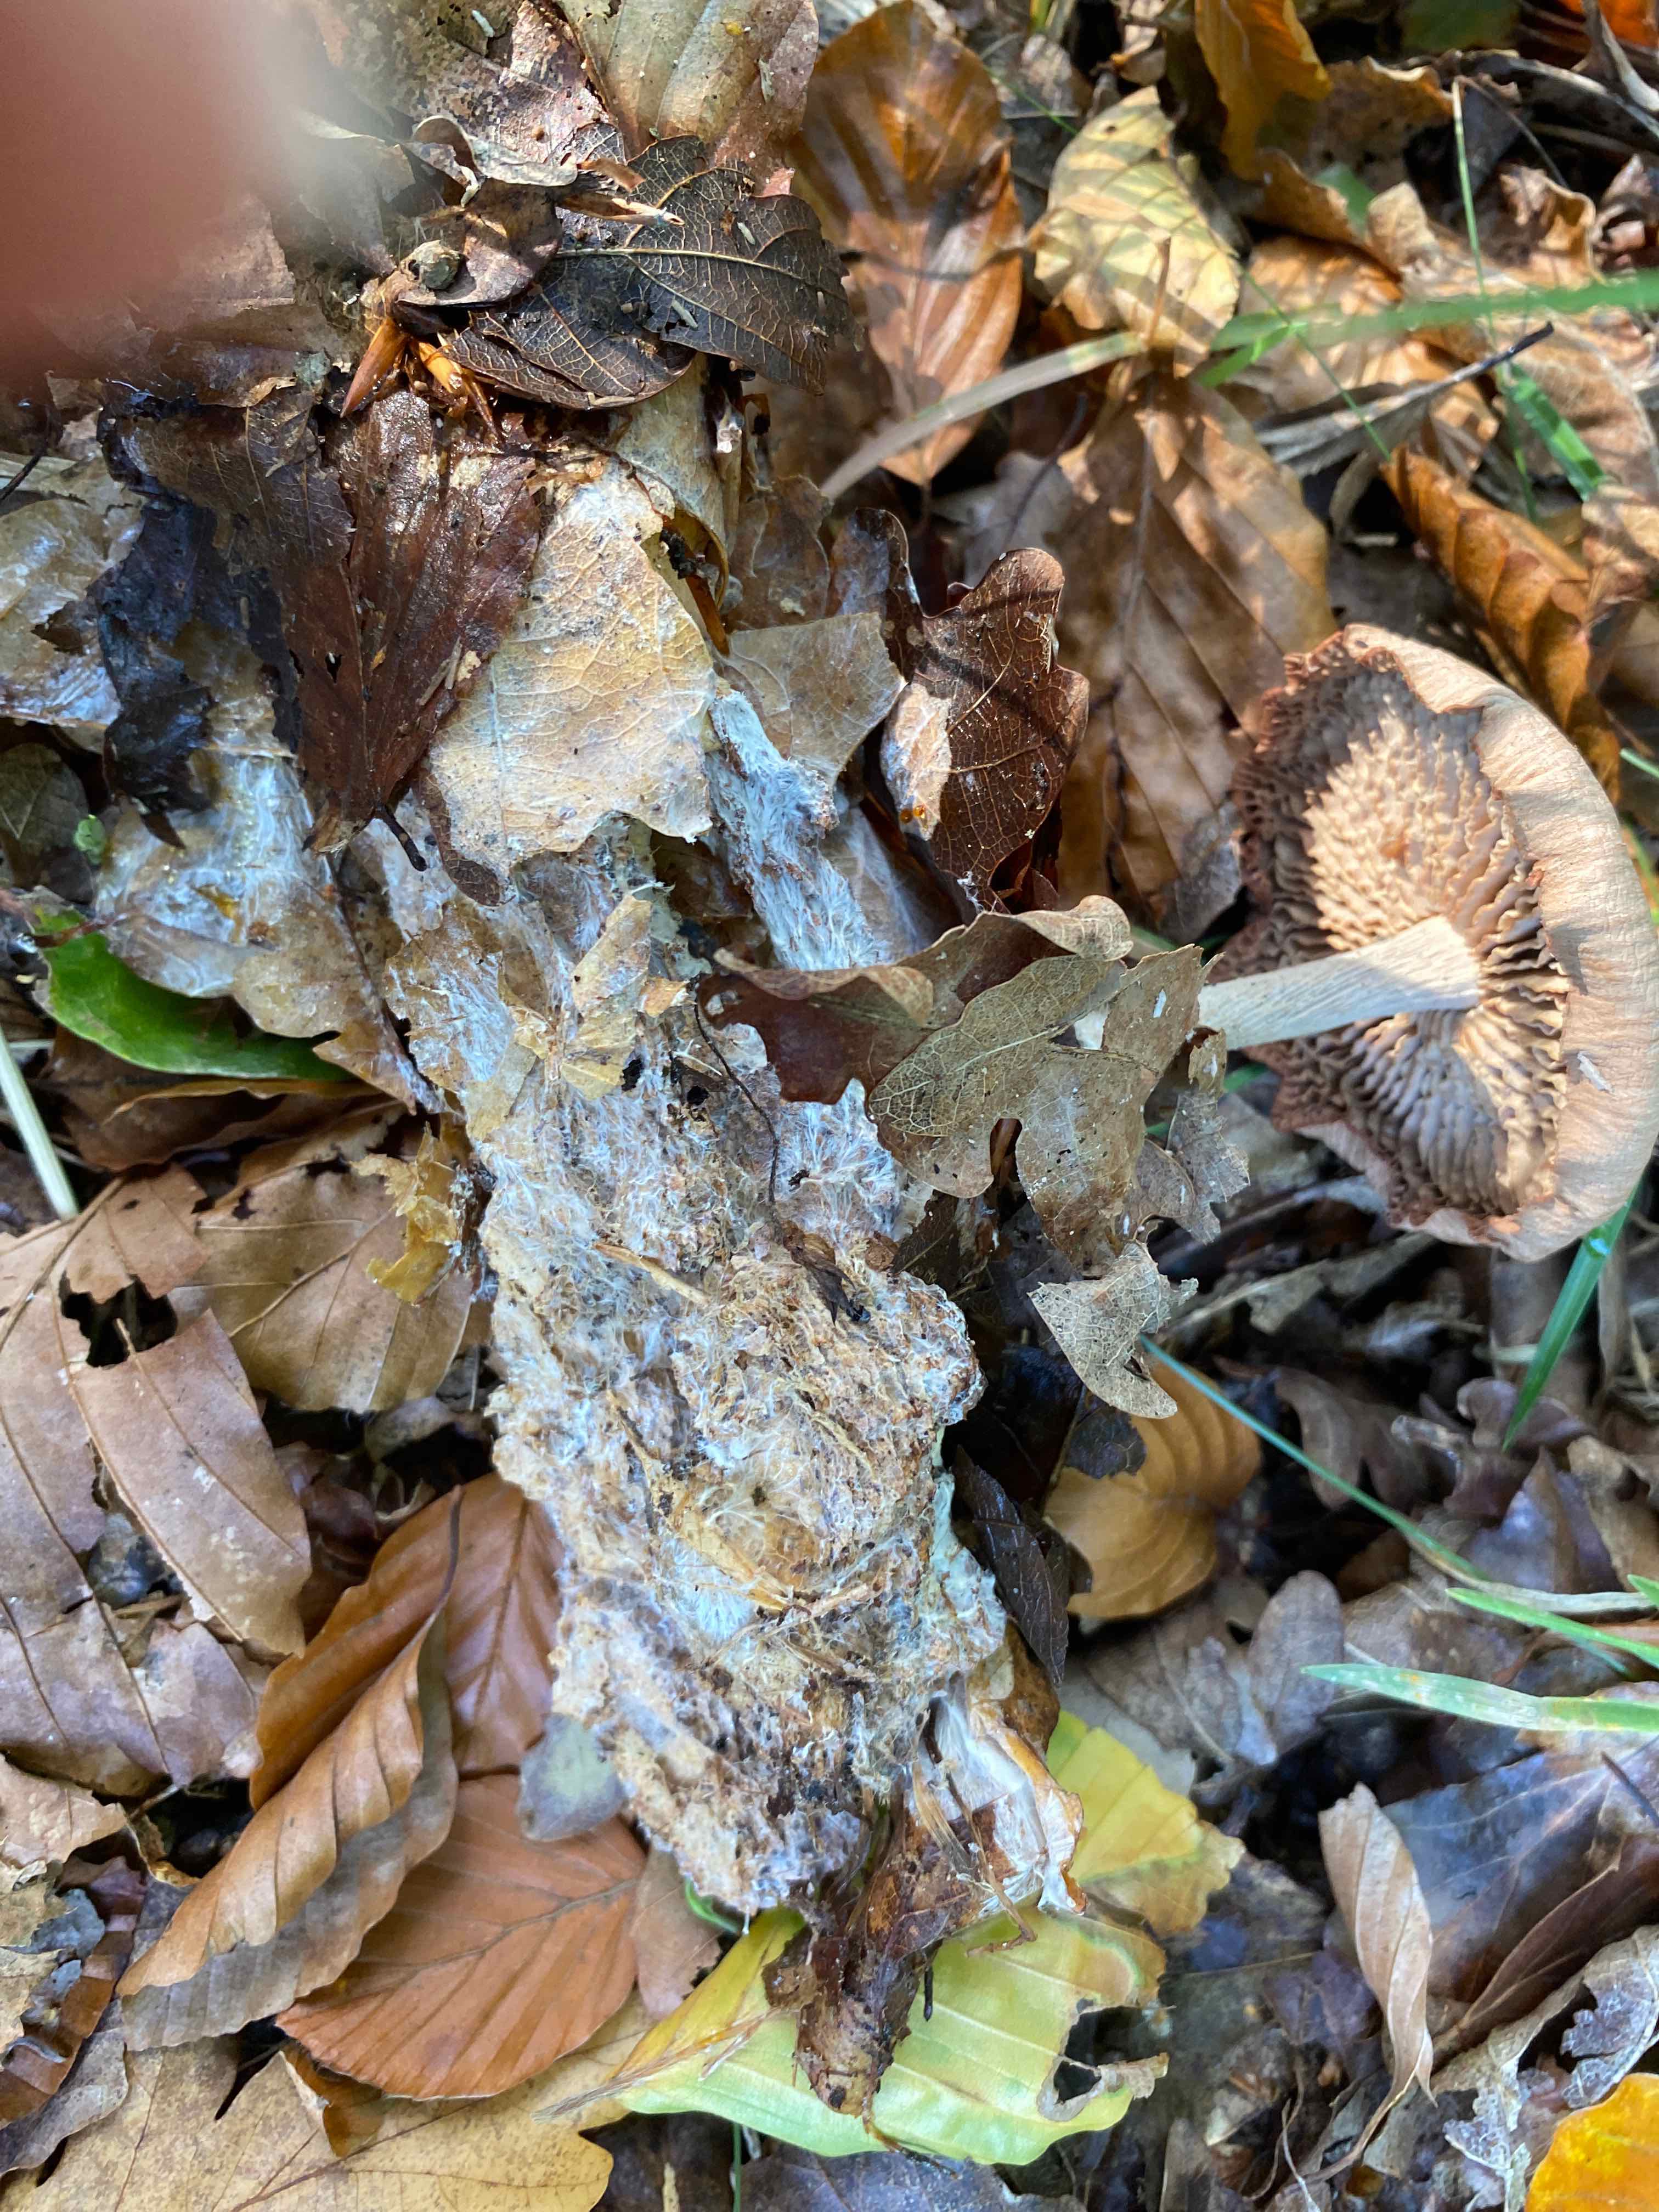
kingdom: Fungi
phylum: Basidiomycota
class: Agaricomycetes
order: Agaricales
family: Omphalotaceae
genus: Collybiopsis
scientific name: Collybiopsis peronata
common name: bestøvlet fladhat
